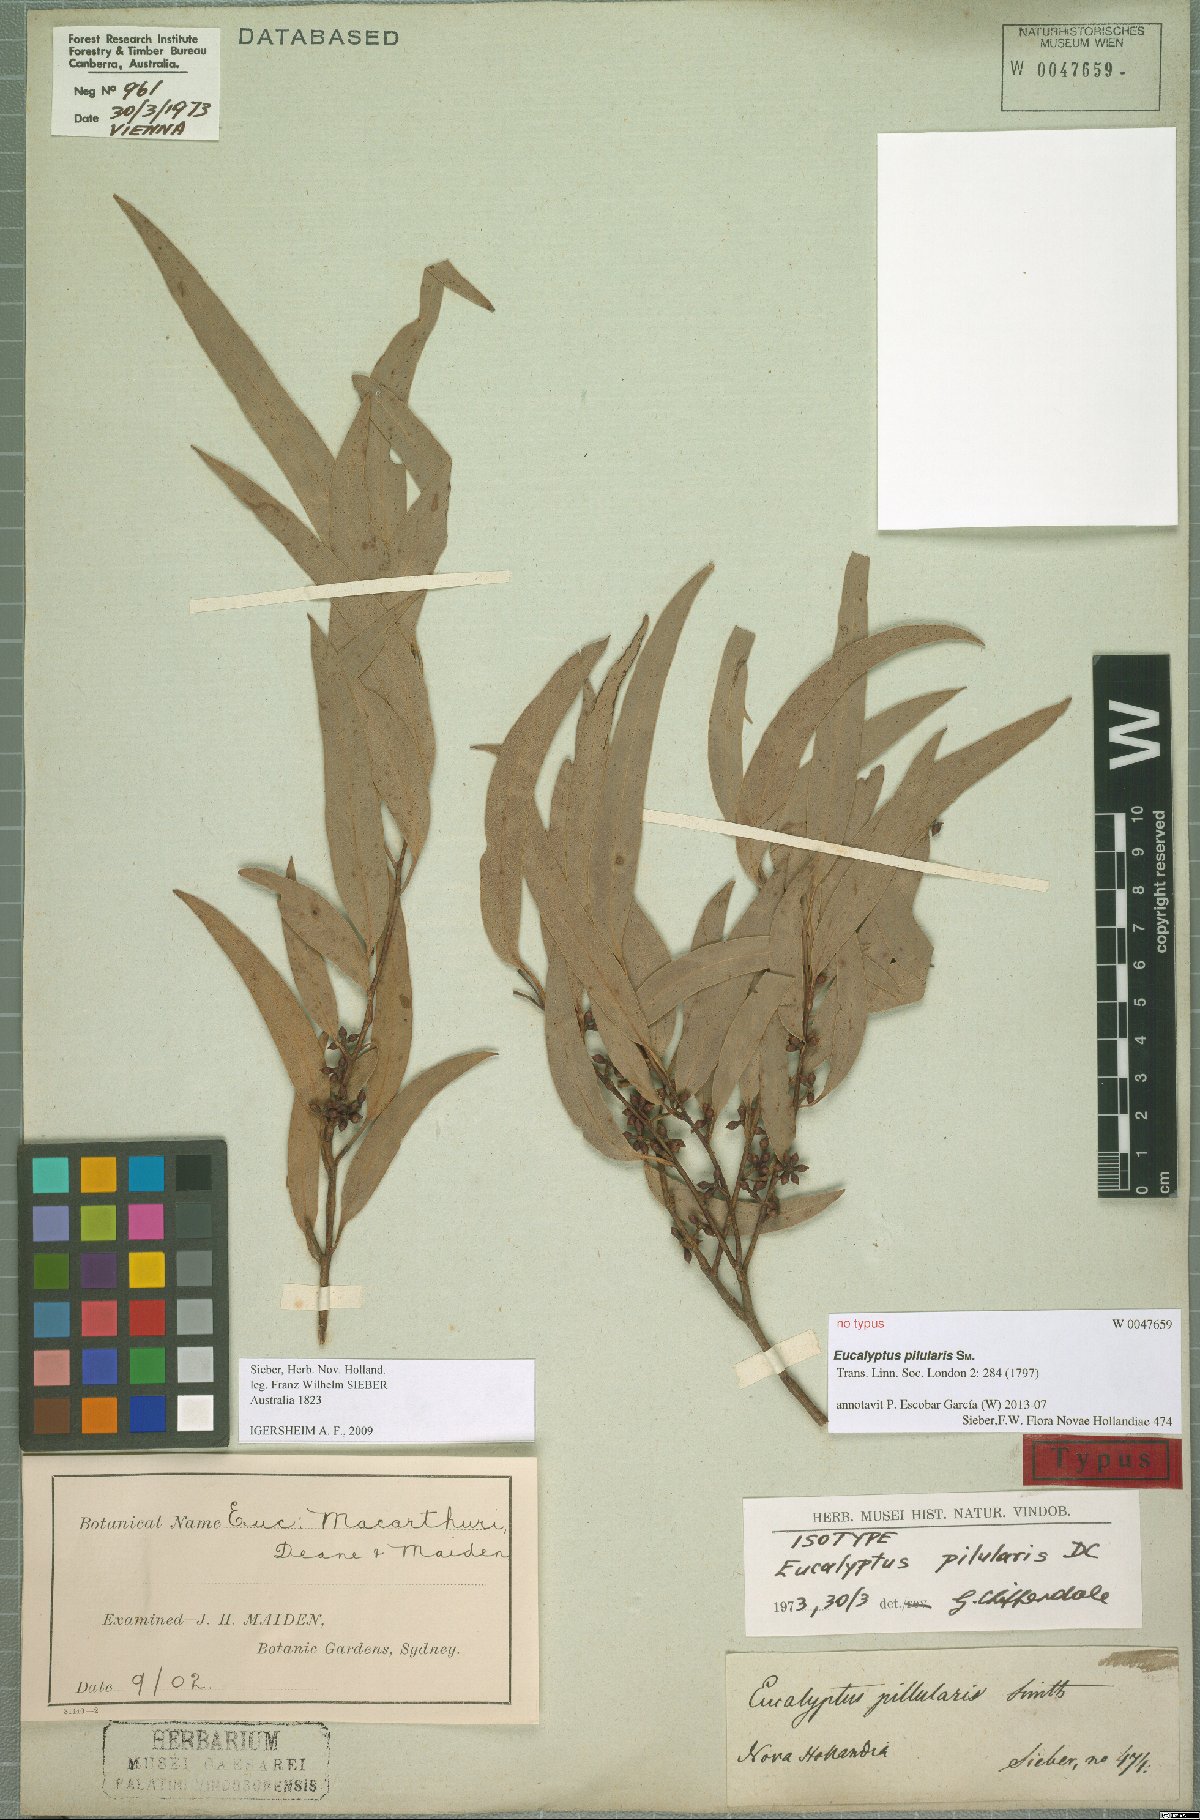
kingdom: Plantae
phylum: Tracheophyta
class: Magnoliopsida
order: Myrtales
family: Myrtaceae
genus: Eucalyptus
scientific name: Eucalyptus pilularis
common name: Blackbutt
